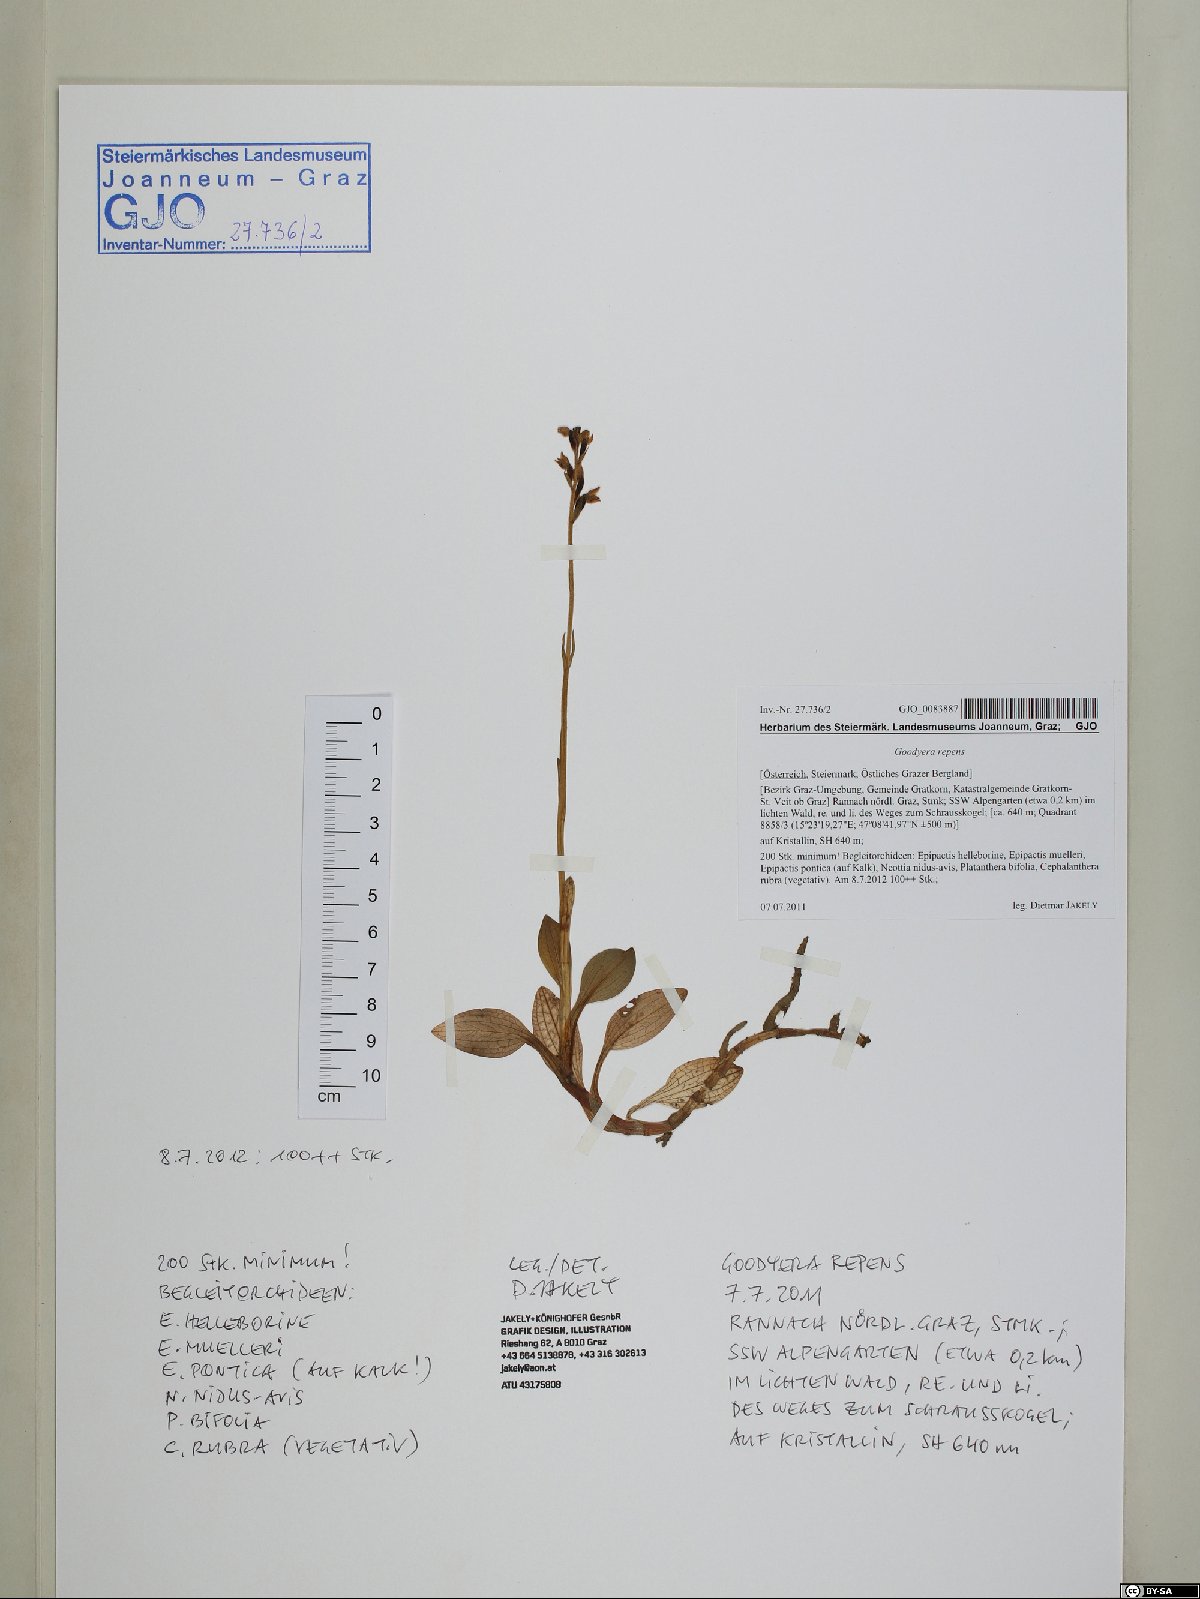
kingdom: Plantae
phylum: Tracheophyta
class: Liliopsida
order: Asparagales
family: Orchidaceae
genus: Goodyera
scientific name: Goodyera repens
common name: Creeping lady's-tresses
